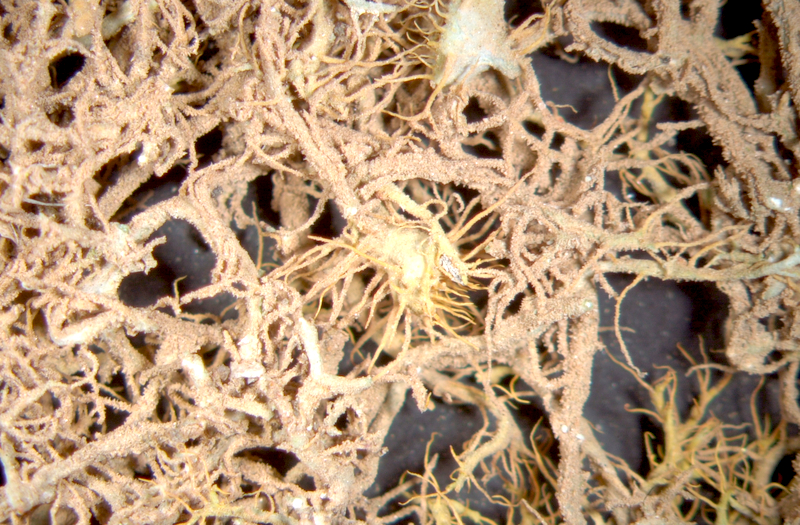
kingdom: Fungi
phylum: Ascomycota
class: Lecanoromycetes
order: Teloschistales
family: Teloschistaceae
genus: Teloschistes
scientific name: Teloschistes capensis
